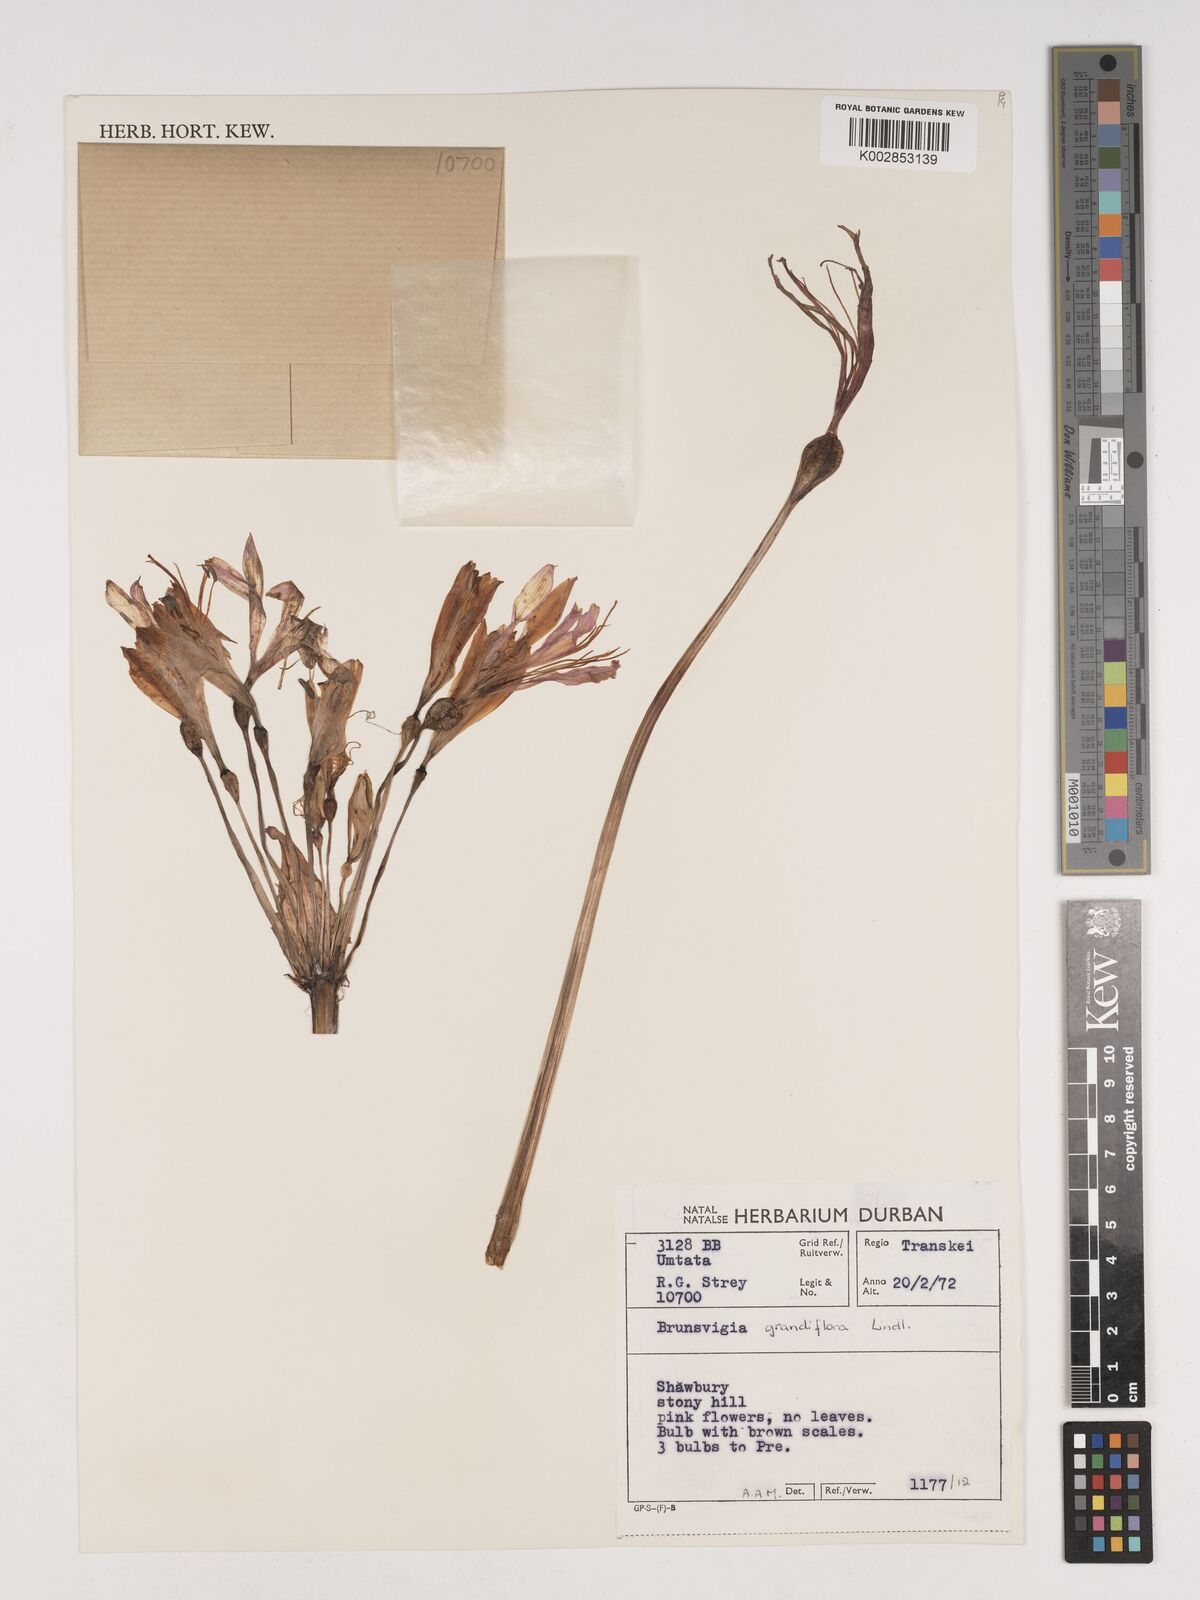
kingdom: Plantae
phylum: Tracheophyta
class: Liliopsida
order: Asparagales
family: Amaryllidaceae
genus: Brunsvigia
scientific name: Brunsvigia grandiflora
